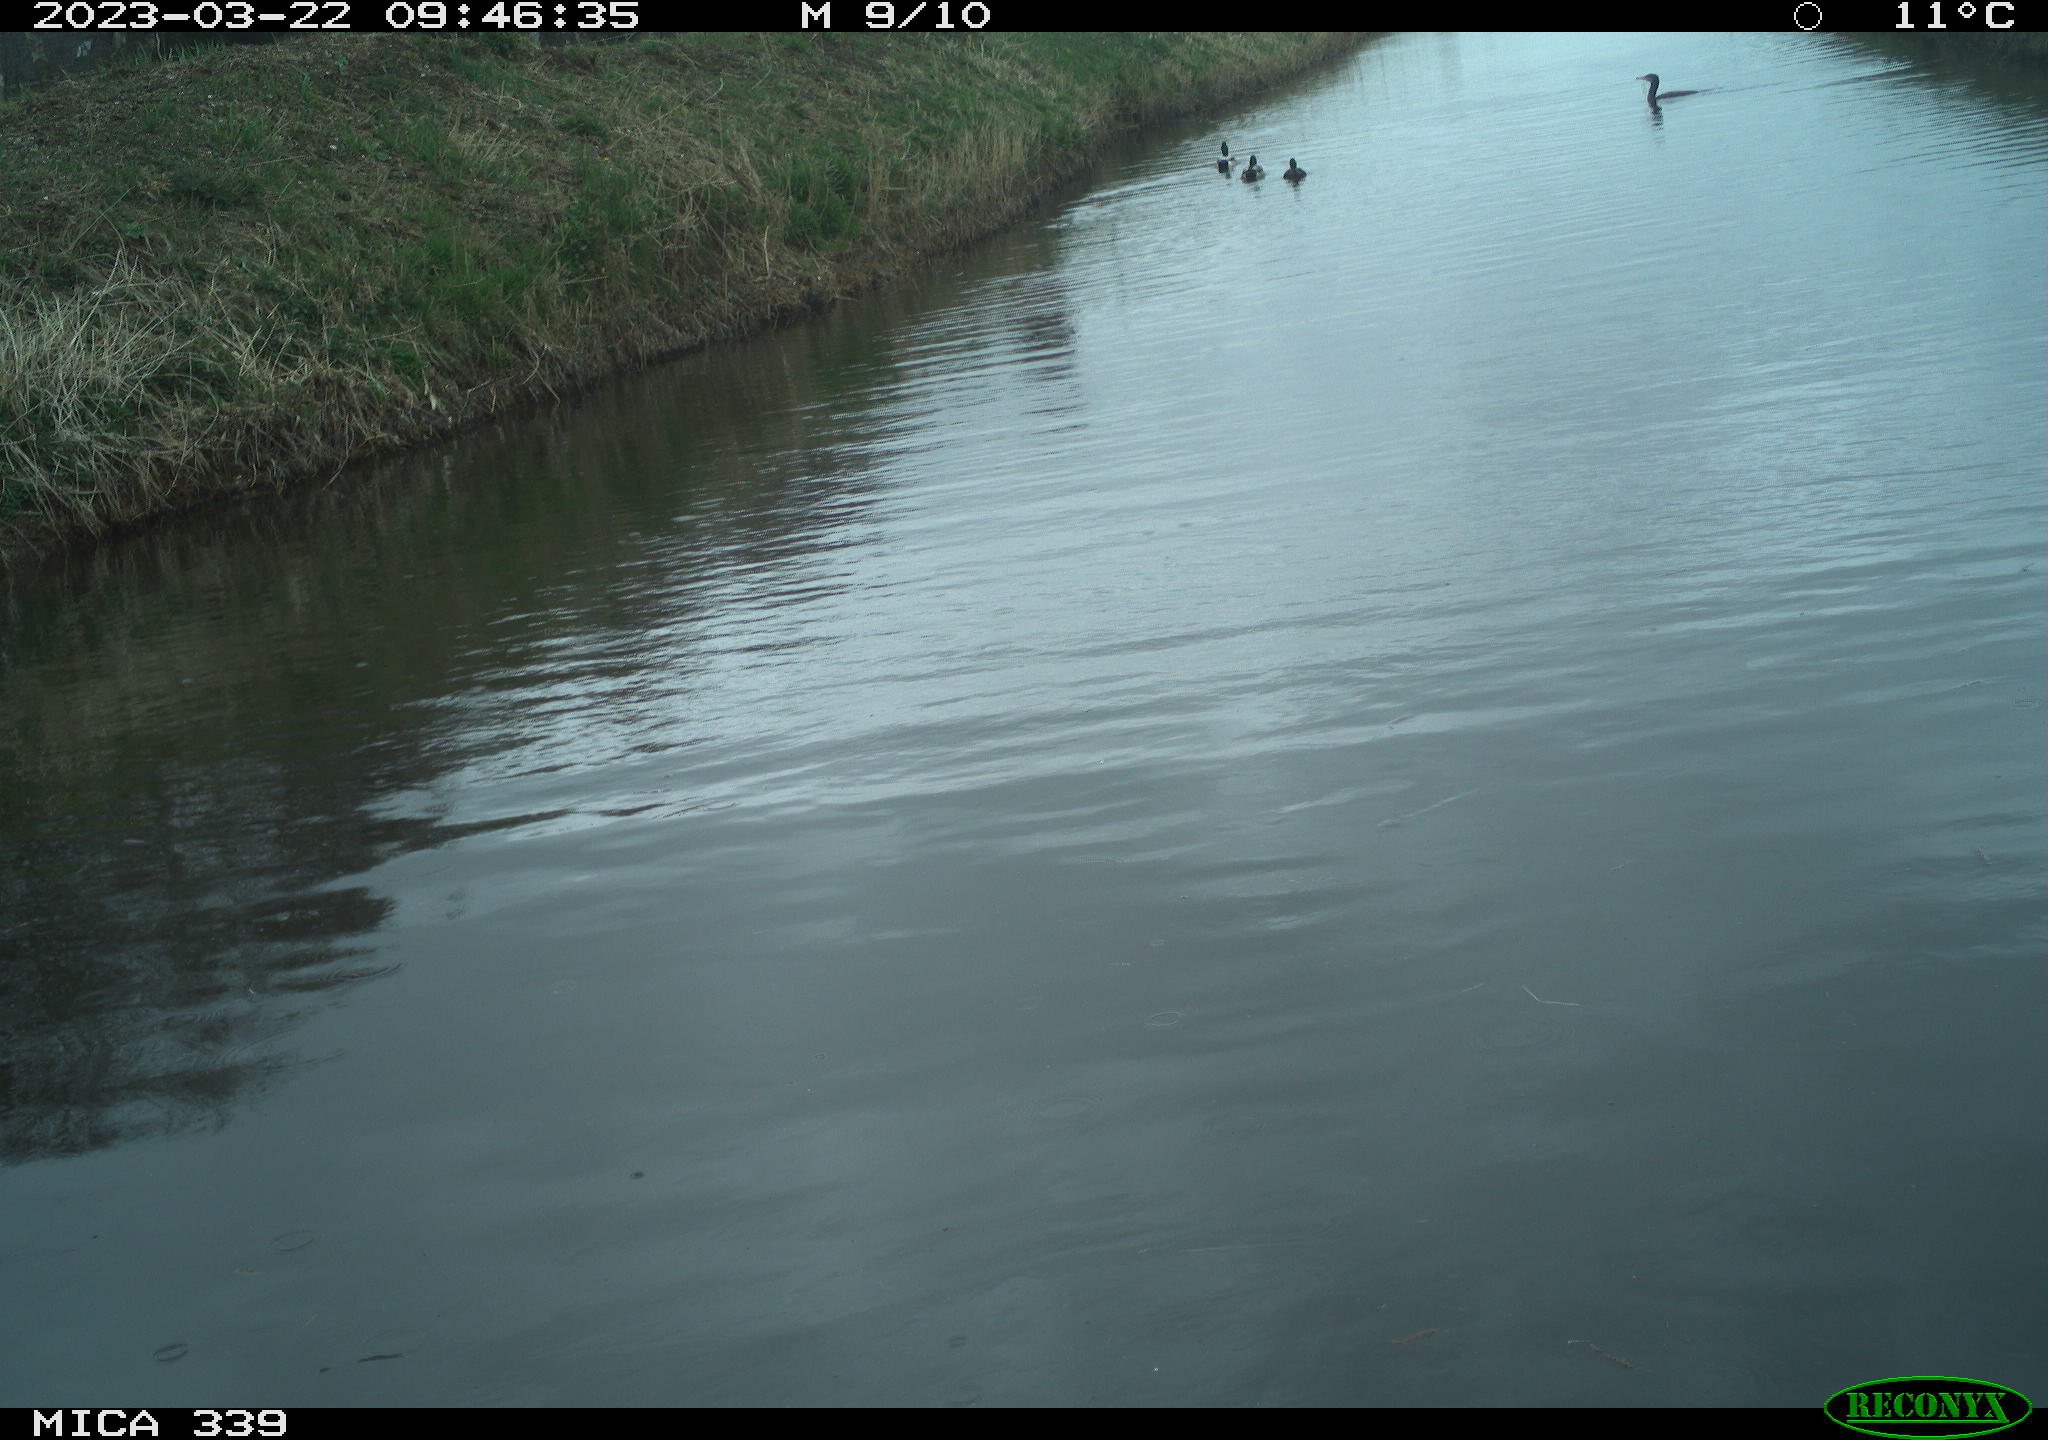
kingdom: Animalia
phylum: Chordata
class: Aves
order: Anseriformes
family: Anatidae
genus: Anas
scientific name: Anas
